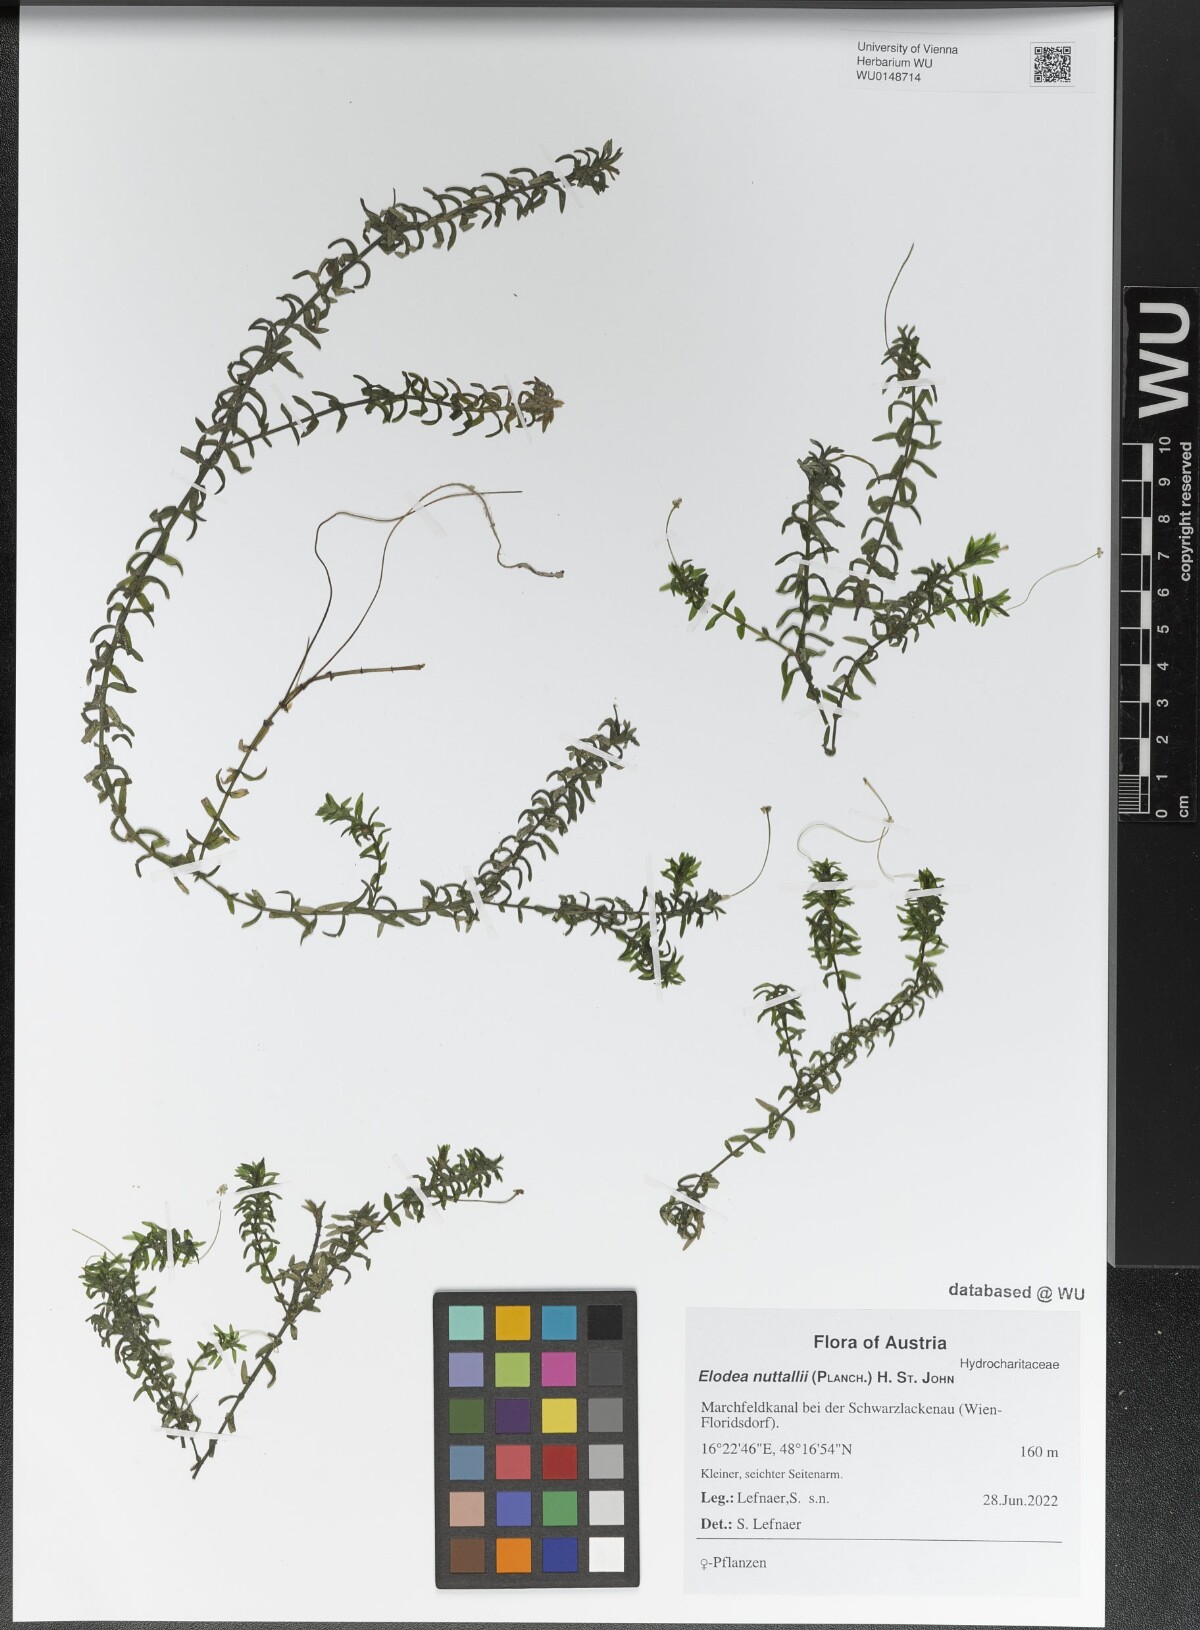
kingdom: Plantae
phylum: Tracheophyta
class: Liliopsida
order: Alismatales
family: Hydrocharitaceae
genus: Elodea
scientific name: Elodea nuttallii
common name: Nuttall's waterweed
